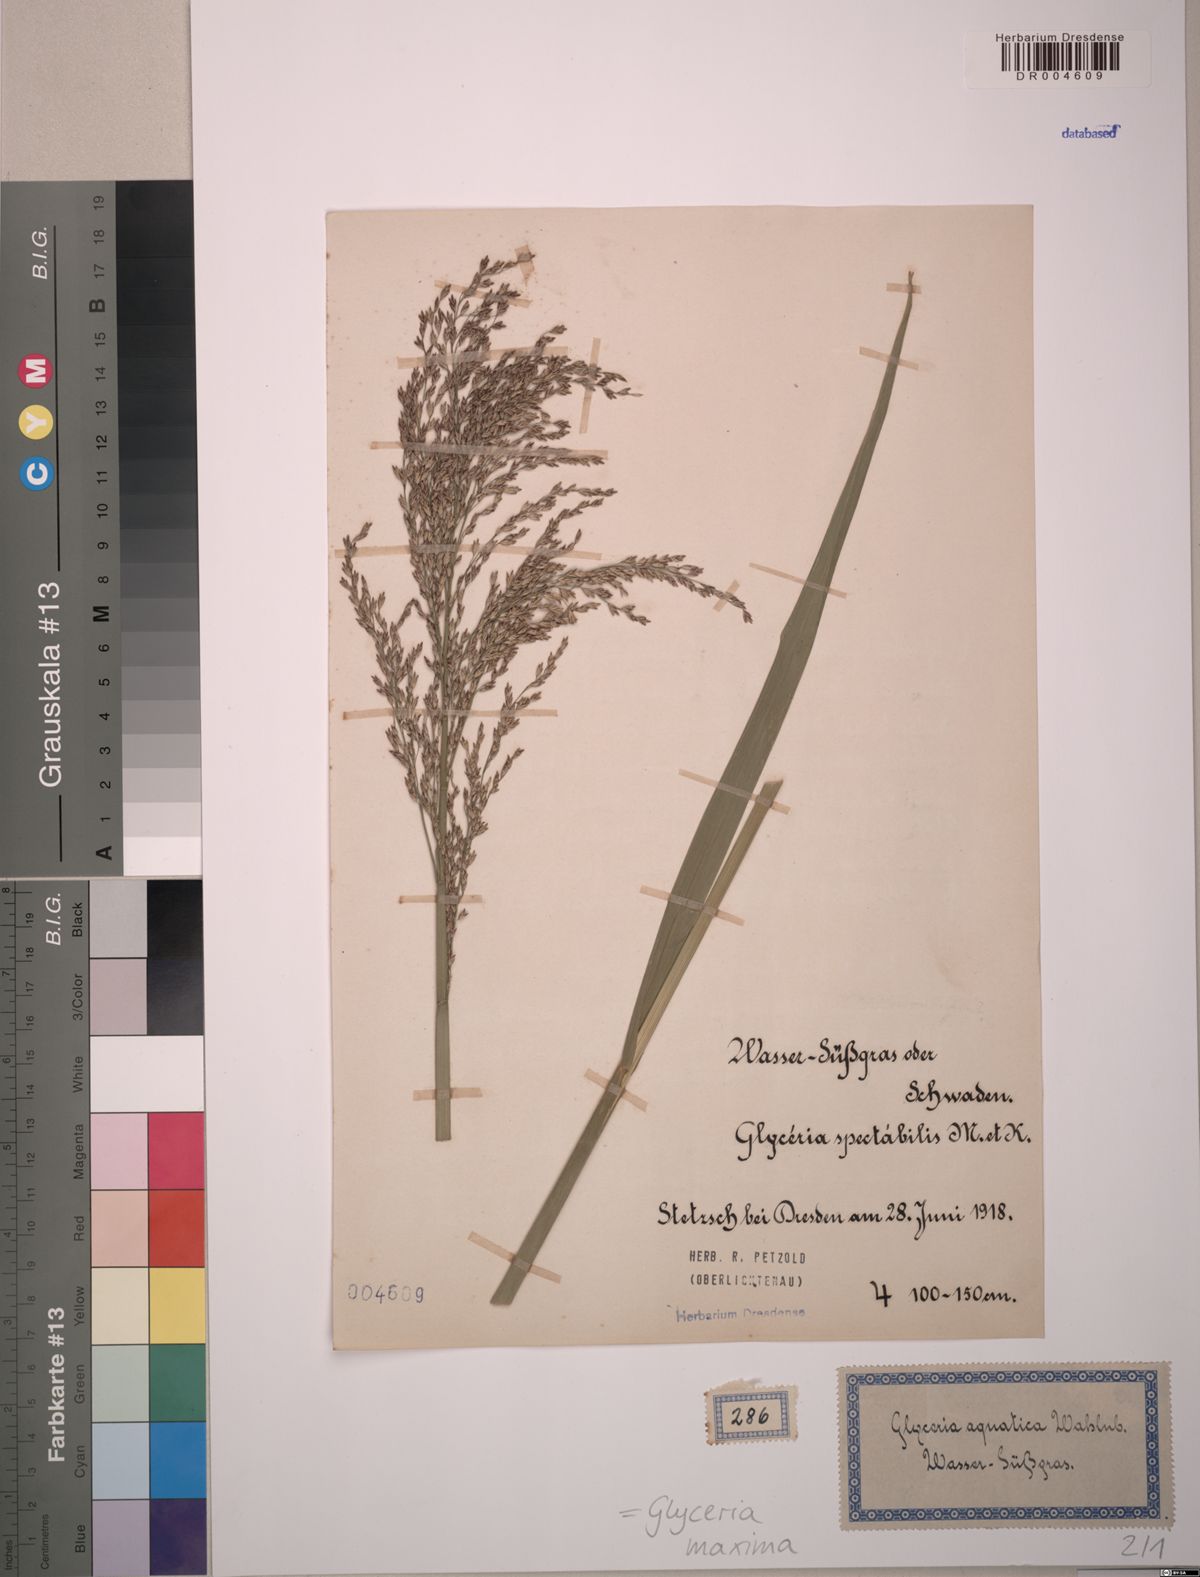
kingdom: Plantae
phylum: Tracheophyta
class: Liliopsida
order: Poales
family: Poaceae
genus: Glyceria
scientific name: Glyceria maxima
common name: Reed mannagrass
